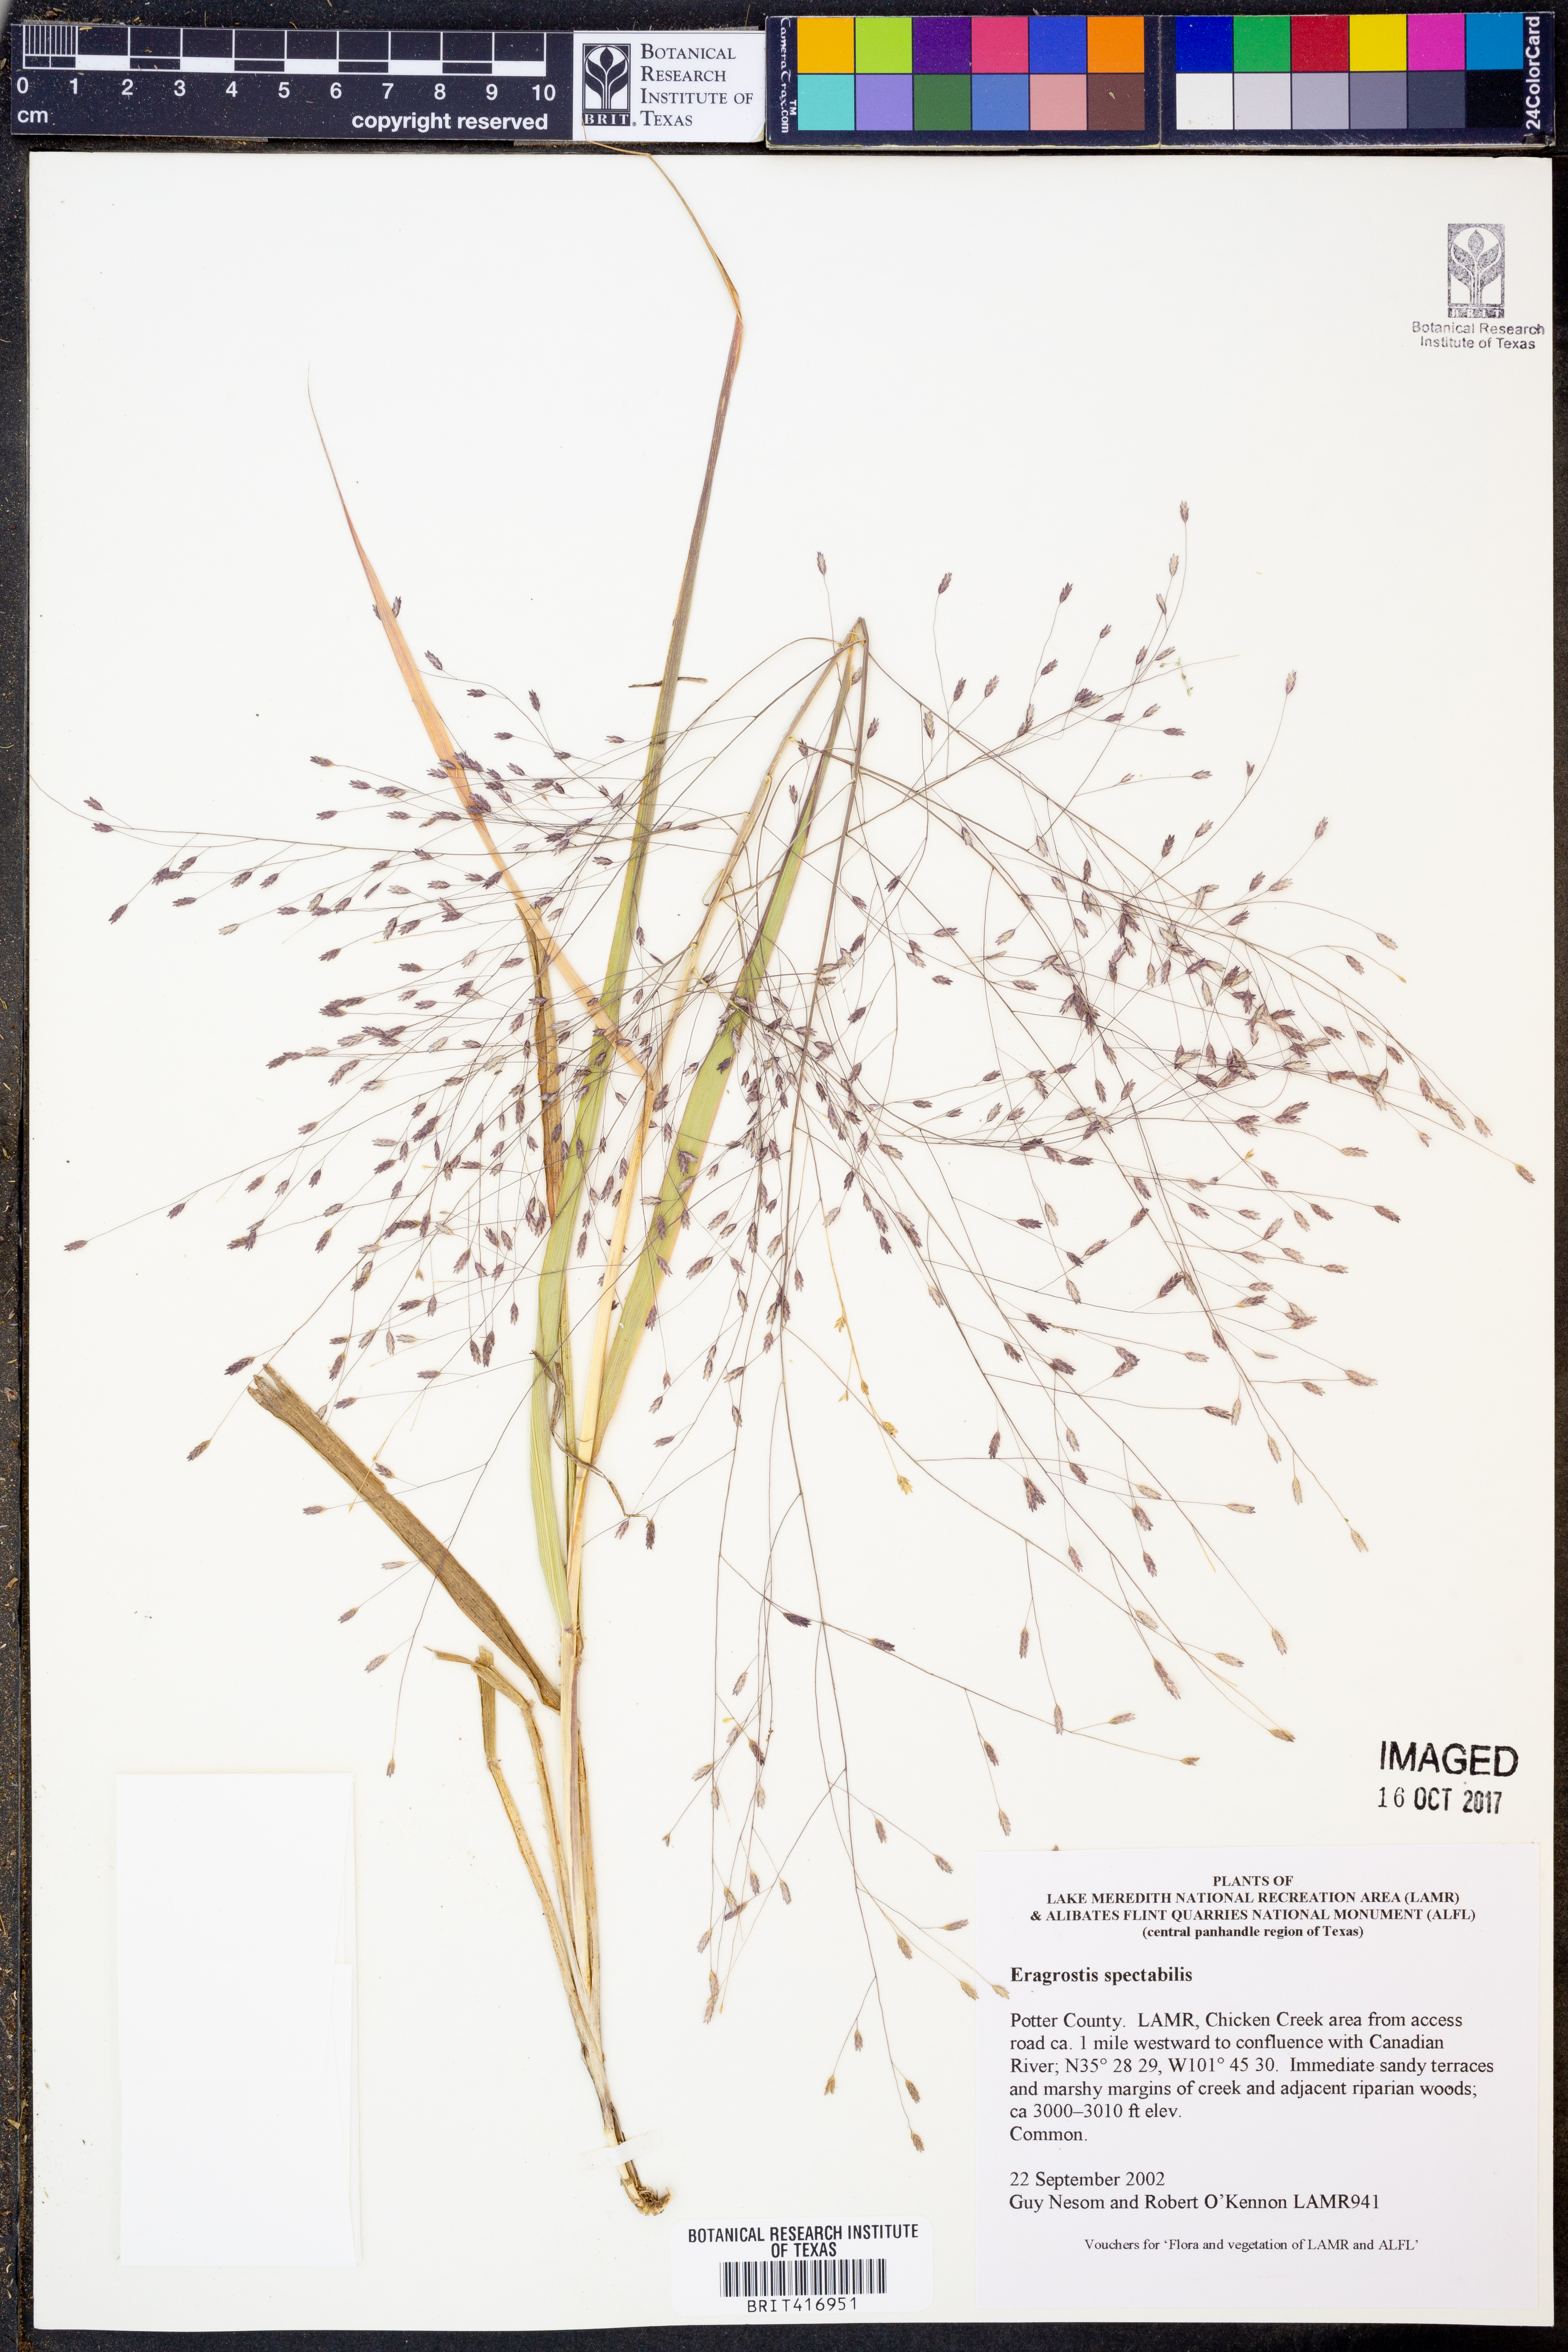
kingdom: Plantae
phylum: Tracheophyta
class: Liliopsida
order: Poales
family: Poaceae
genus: Eragrostis
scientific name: Eragrostis spectabilis
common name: Petticoat-climber
